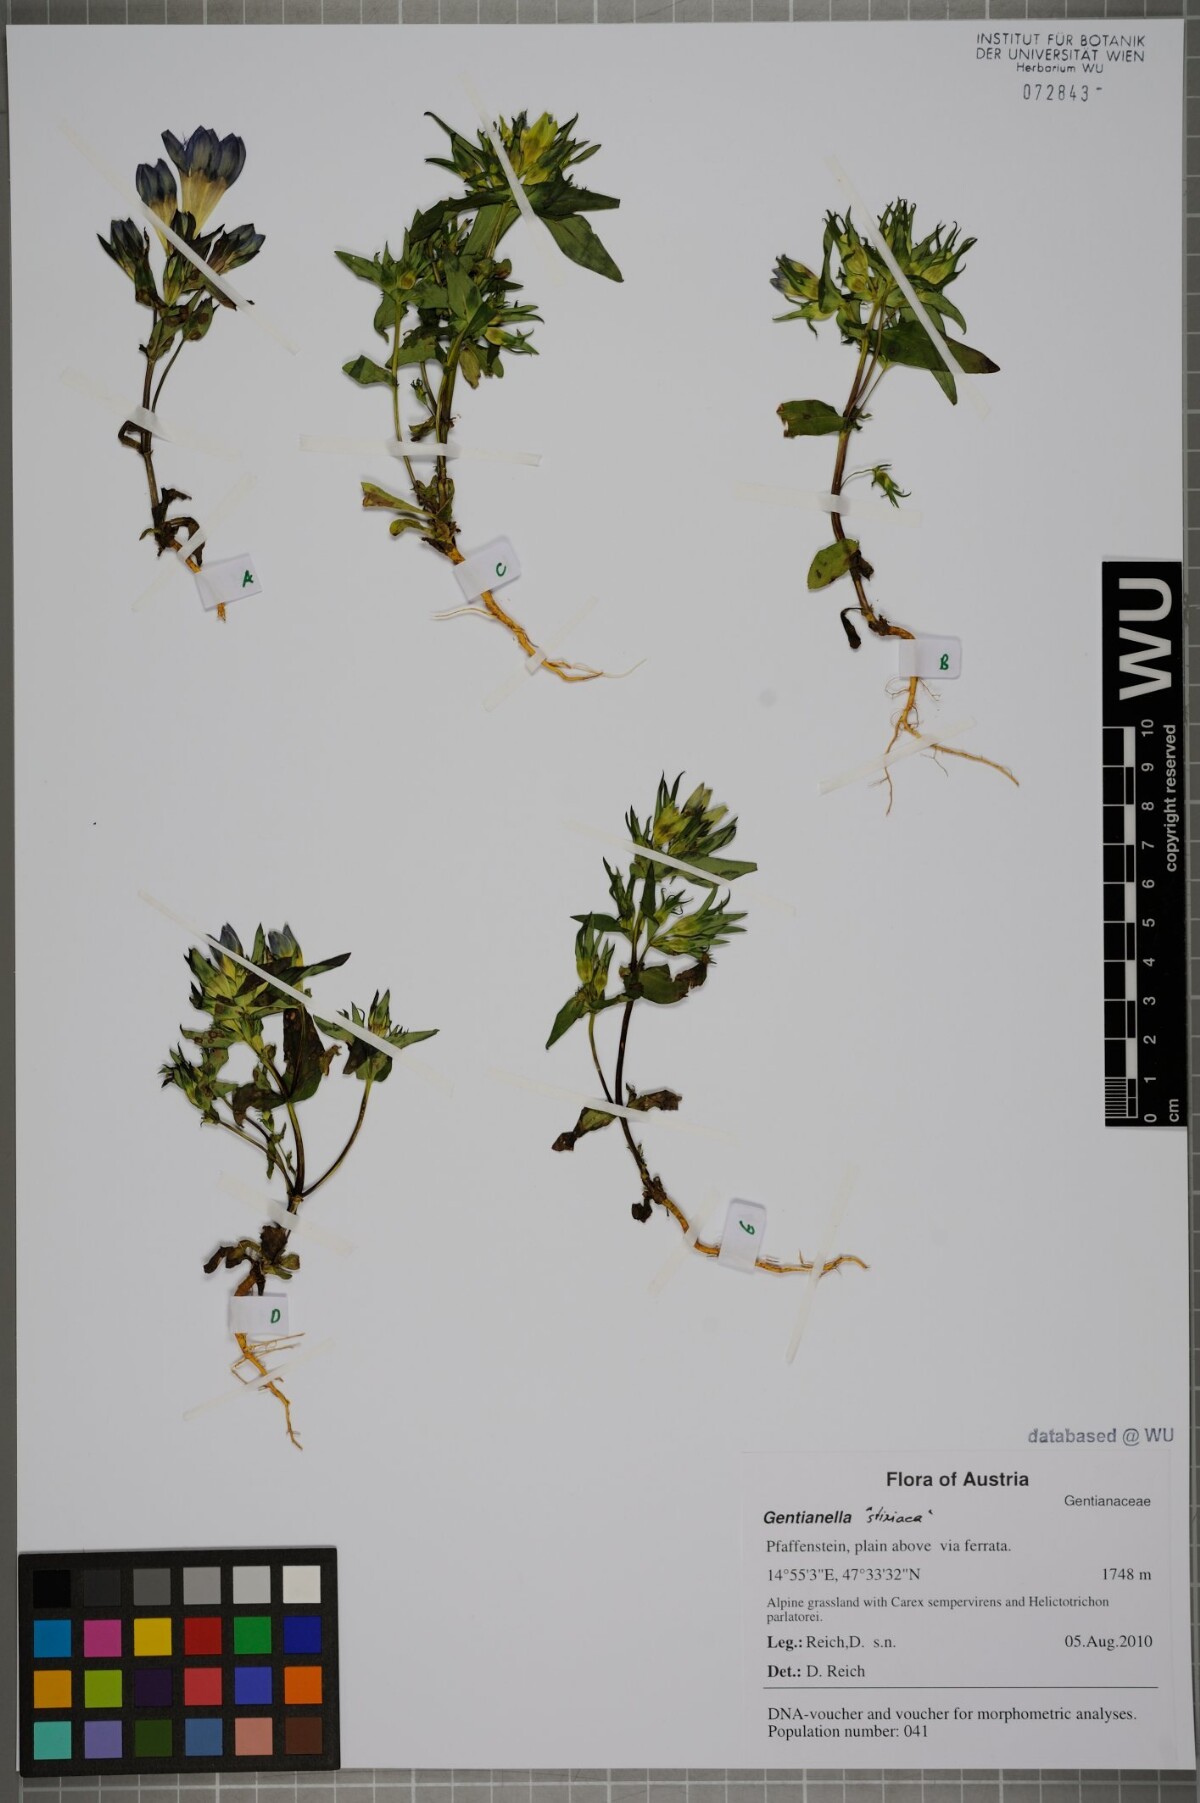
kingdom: Plantae
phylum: Tracheophyta
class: Magnoliopsida
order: Gentianales
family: Gentianaceae
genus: Gentianella
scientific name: Gentianella rhaetica
